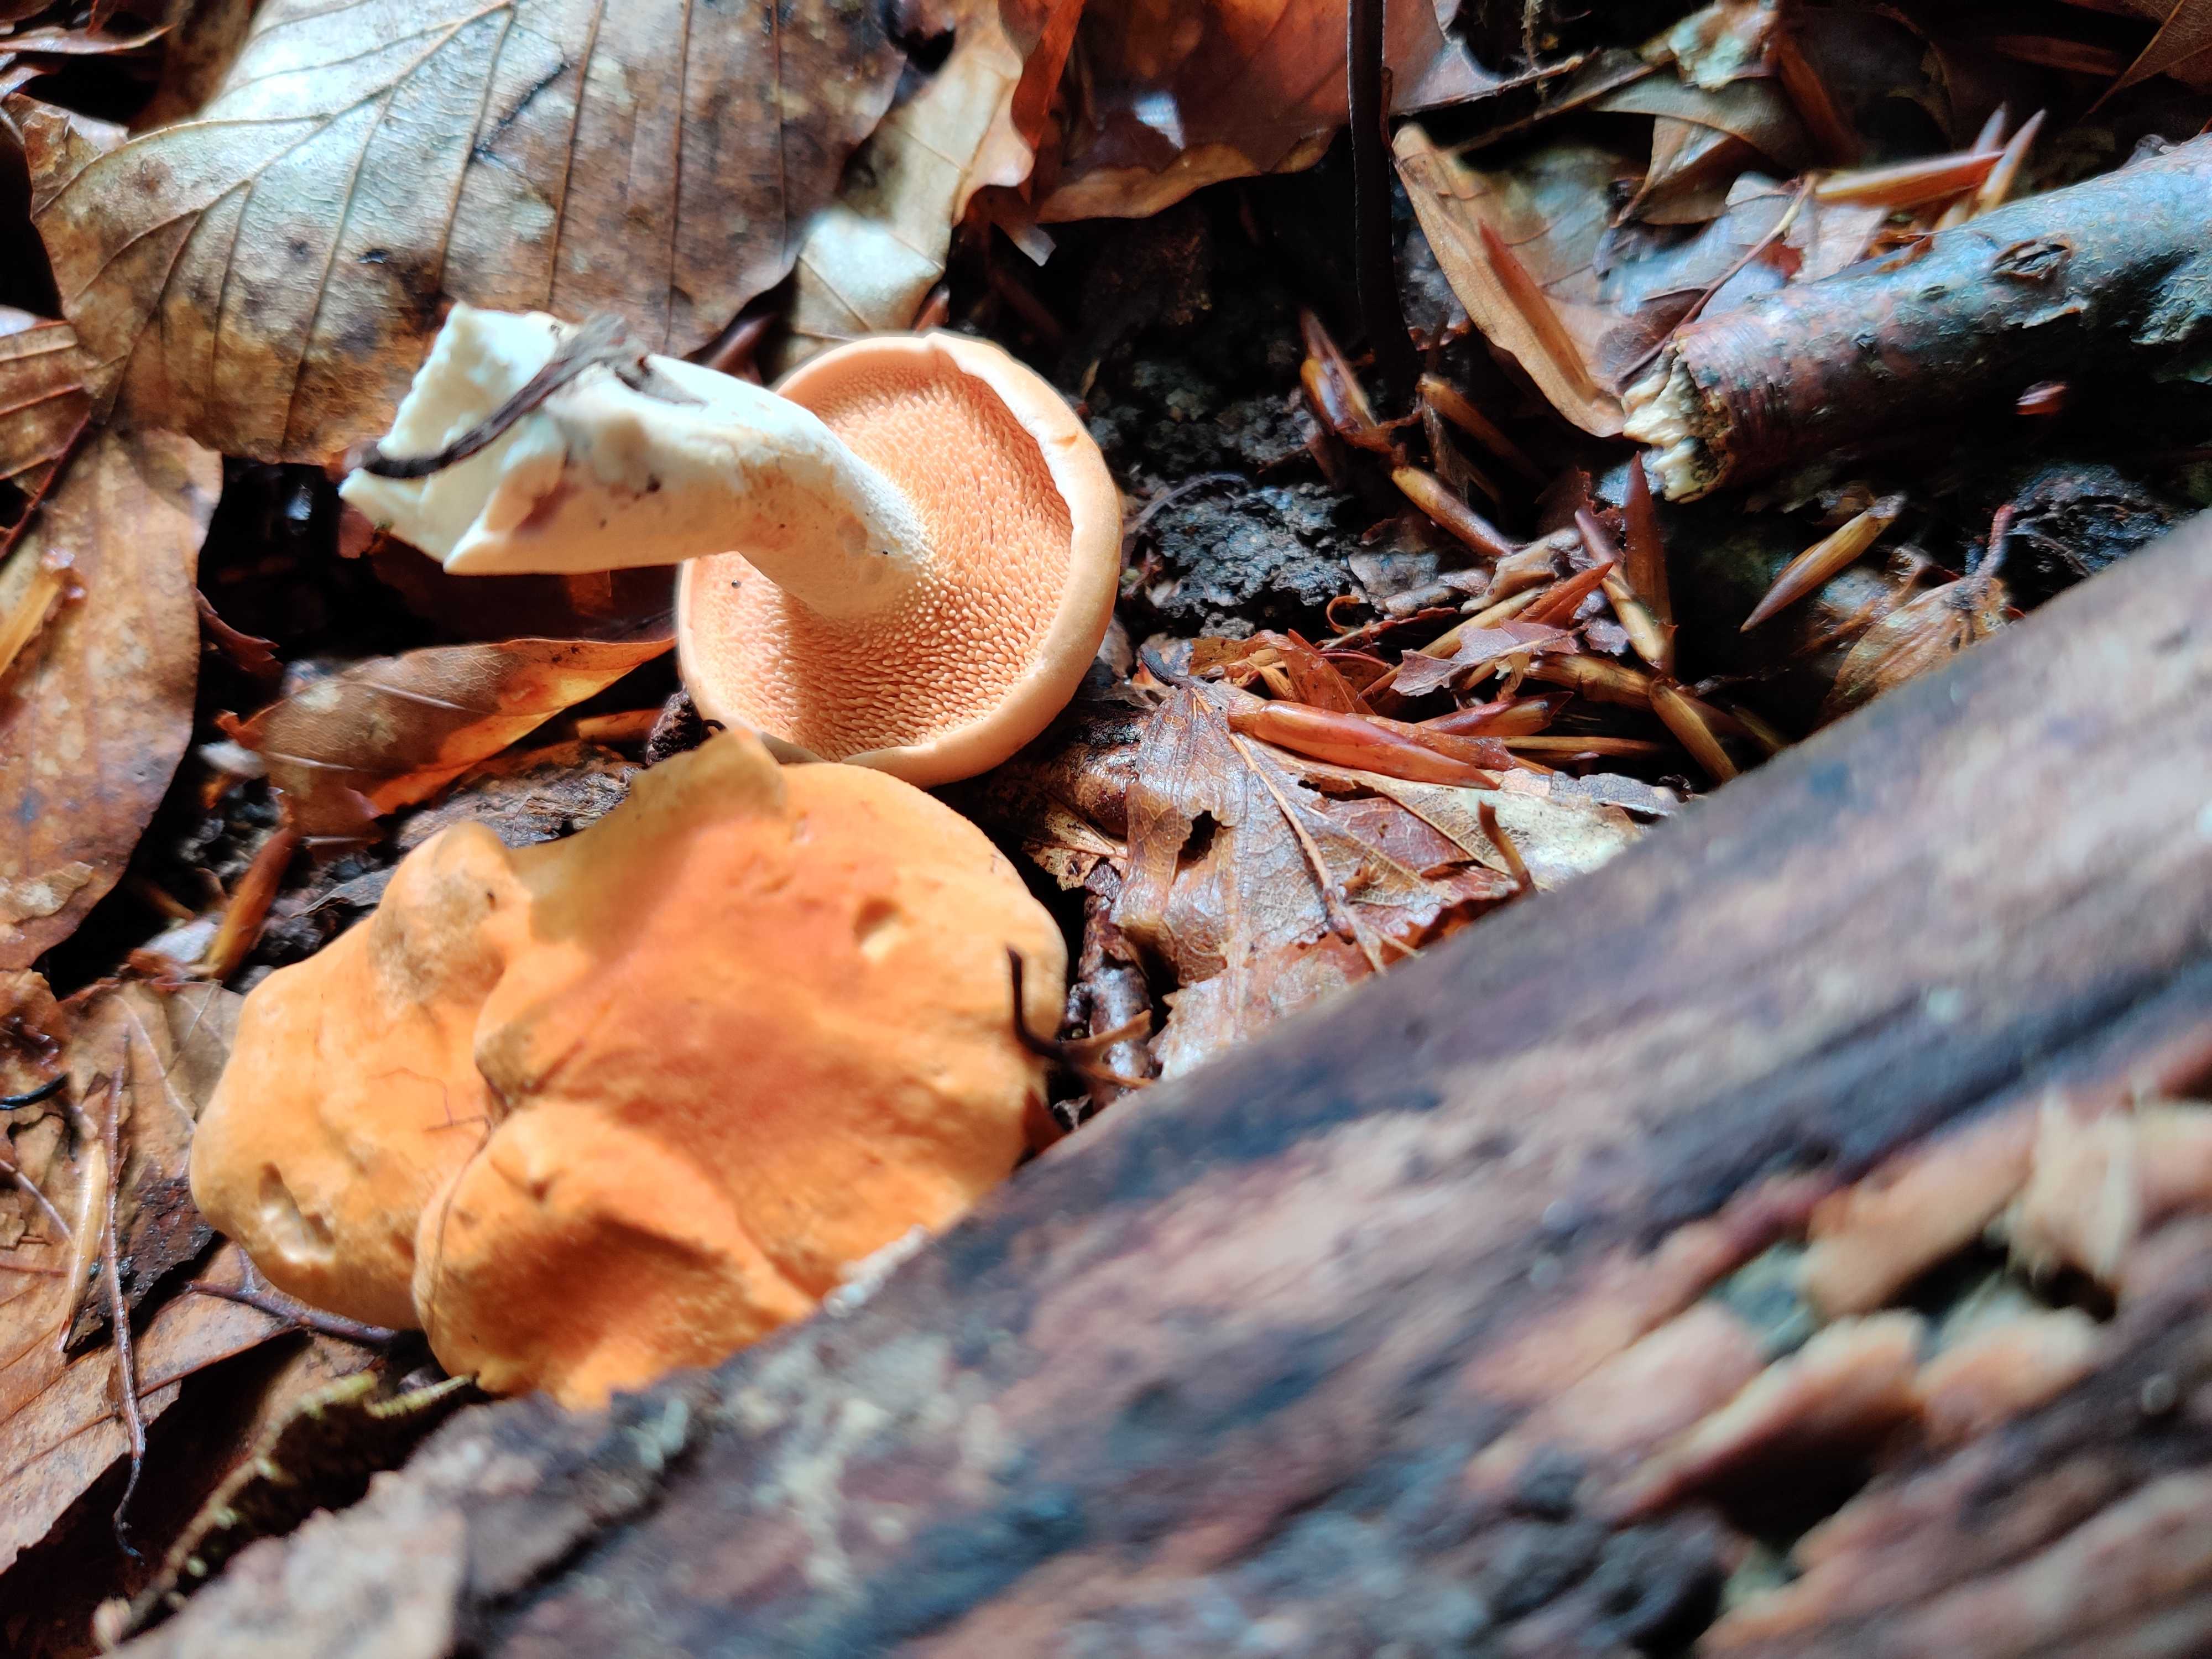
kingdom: Fungi
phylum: Basidiomycota
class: Agaricomycetes
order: Cantharellales
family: Hydnaceae
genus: Hydnum
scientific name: Hydnum rufescens
